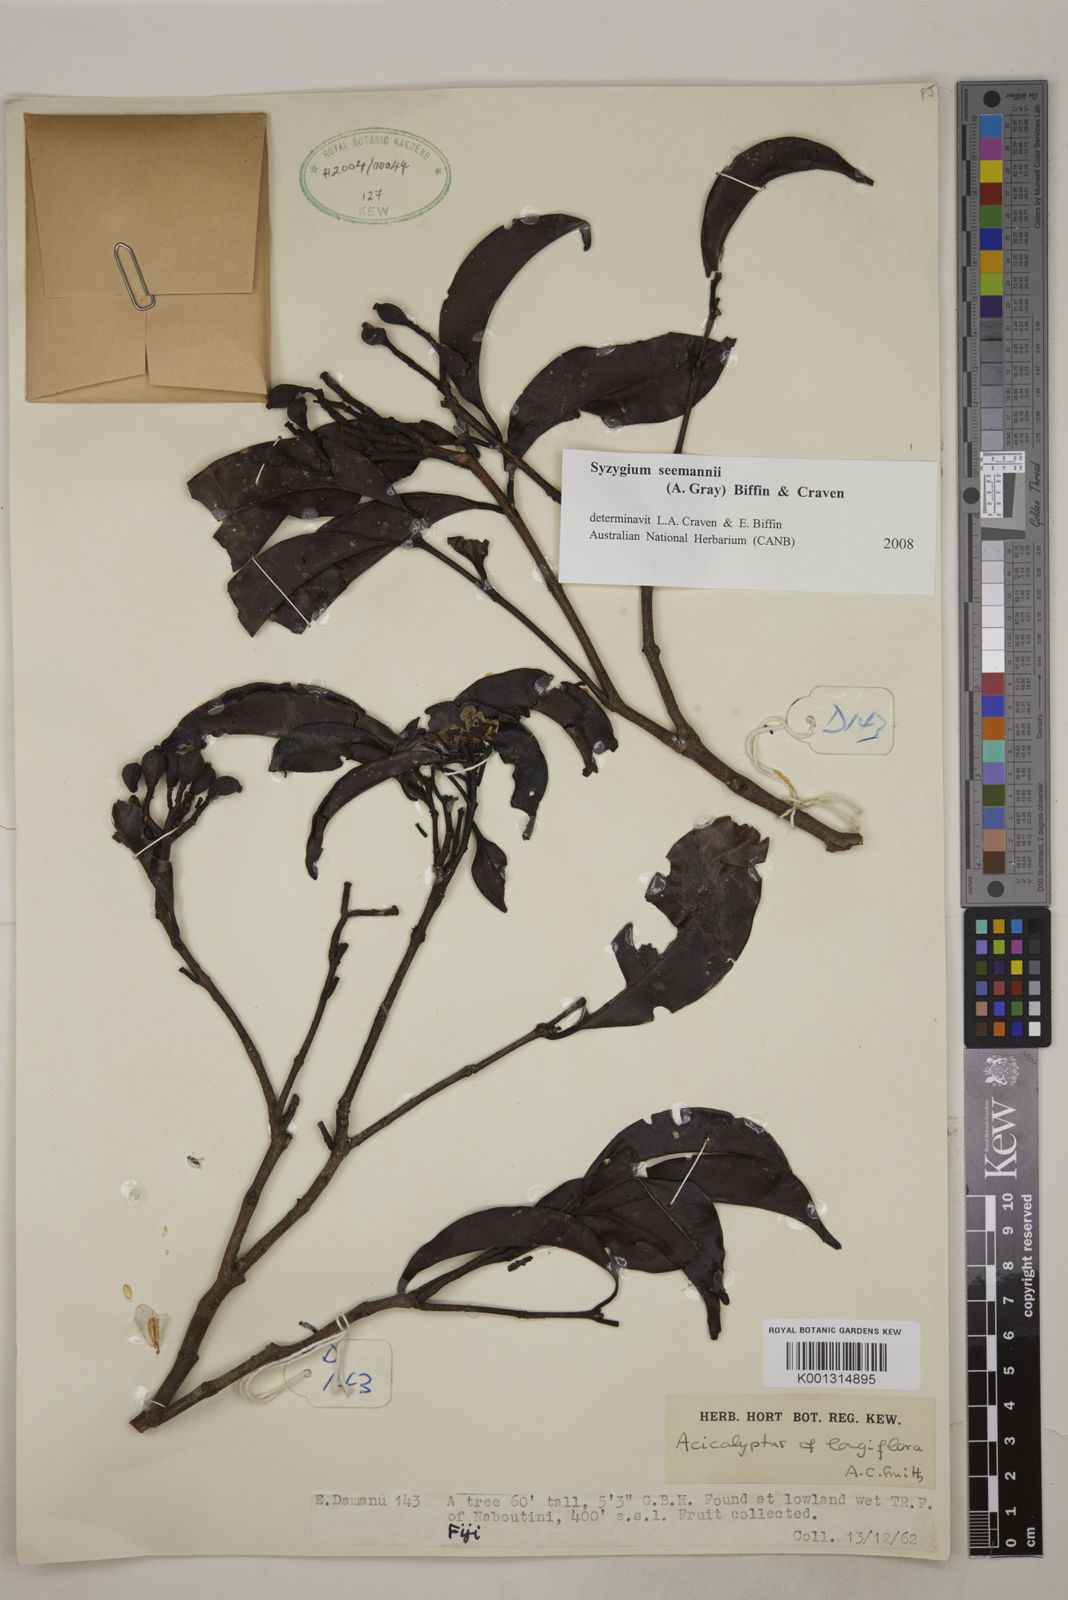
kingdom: Plantae
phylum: Tracheophyta
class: Magnoliopsida
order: Myrtales
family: Myrtaceae
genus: Syzygium
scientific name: Syzygium seemannii
